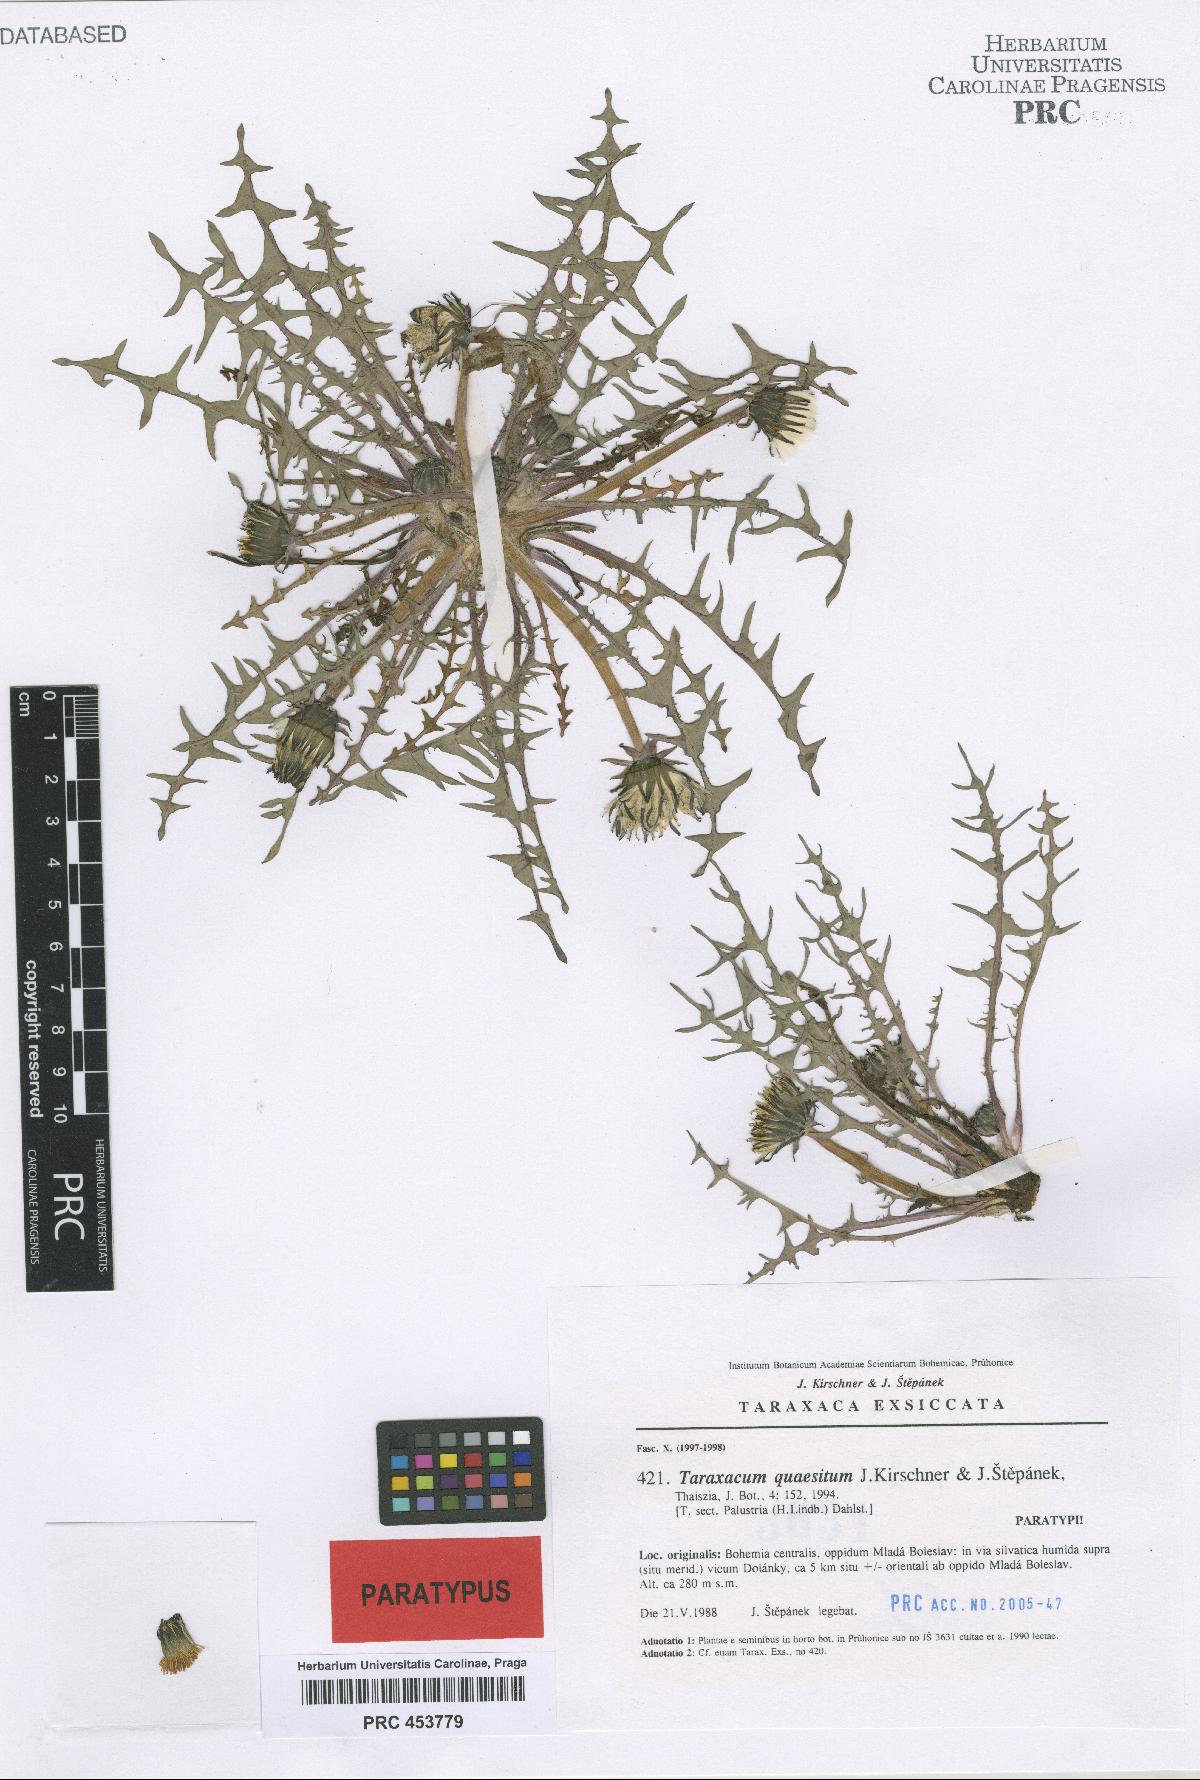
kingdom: Plantae
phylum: Tracheophyta
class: Magnoliopsida
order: Asterales
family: Asteraceae
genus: Taraxacum
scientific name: Taraxacum quaesitum
